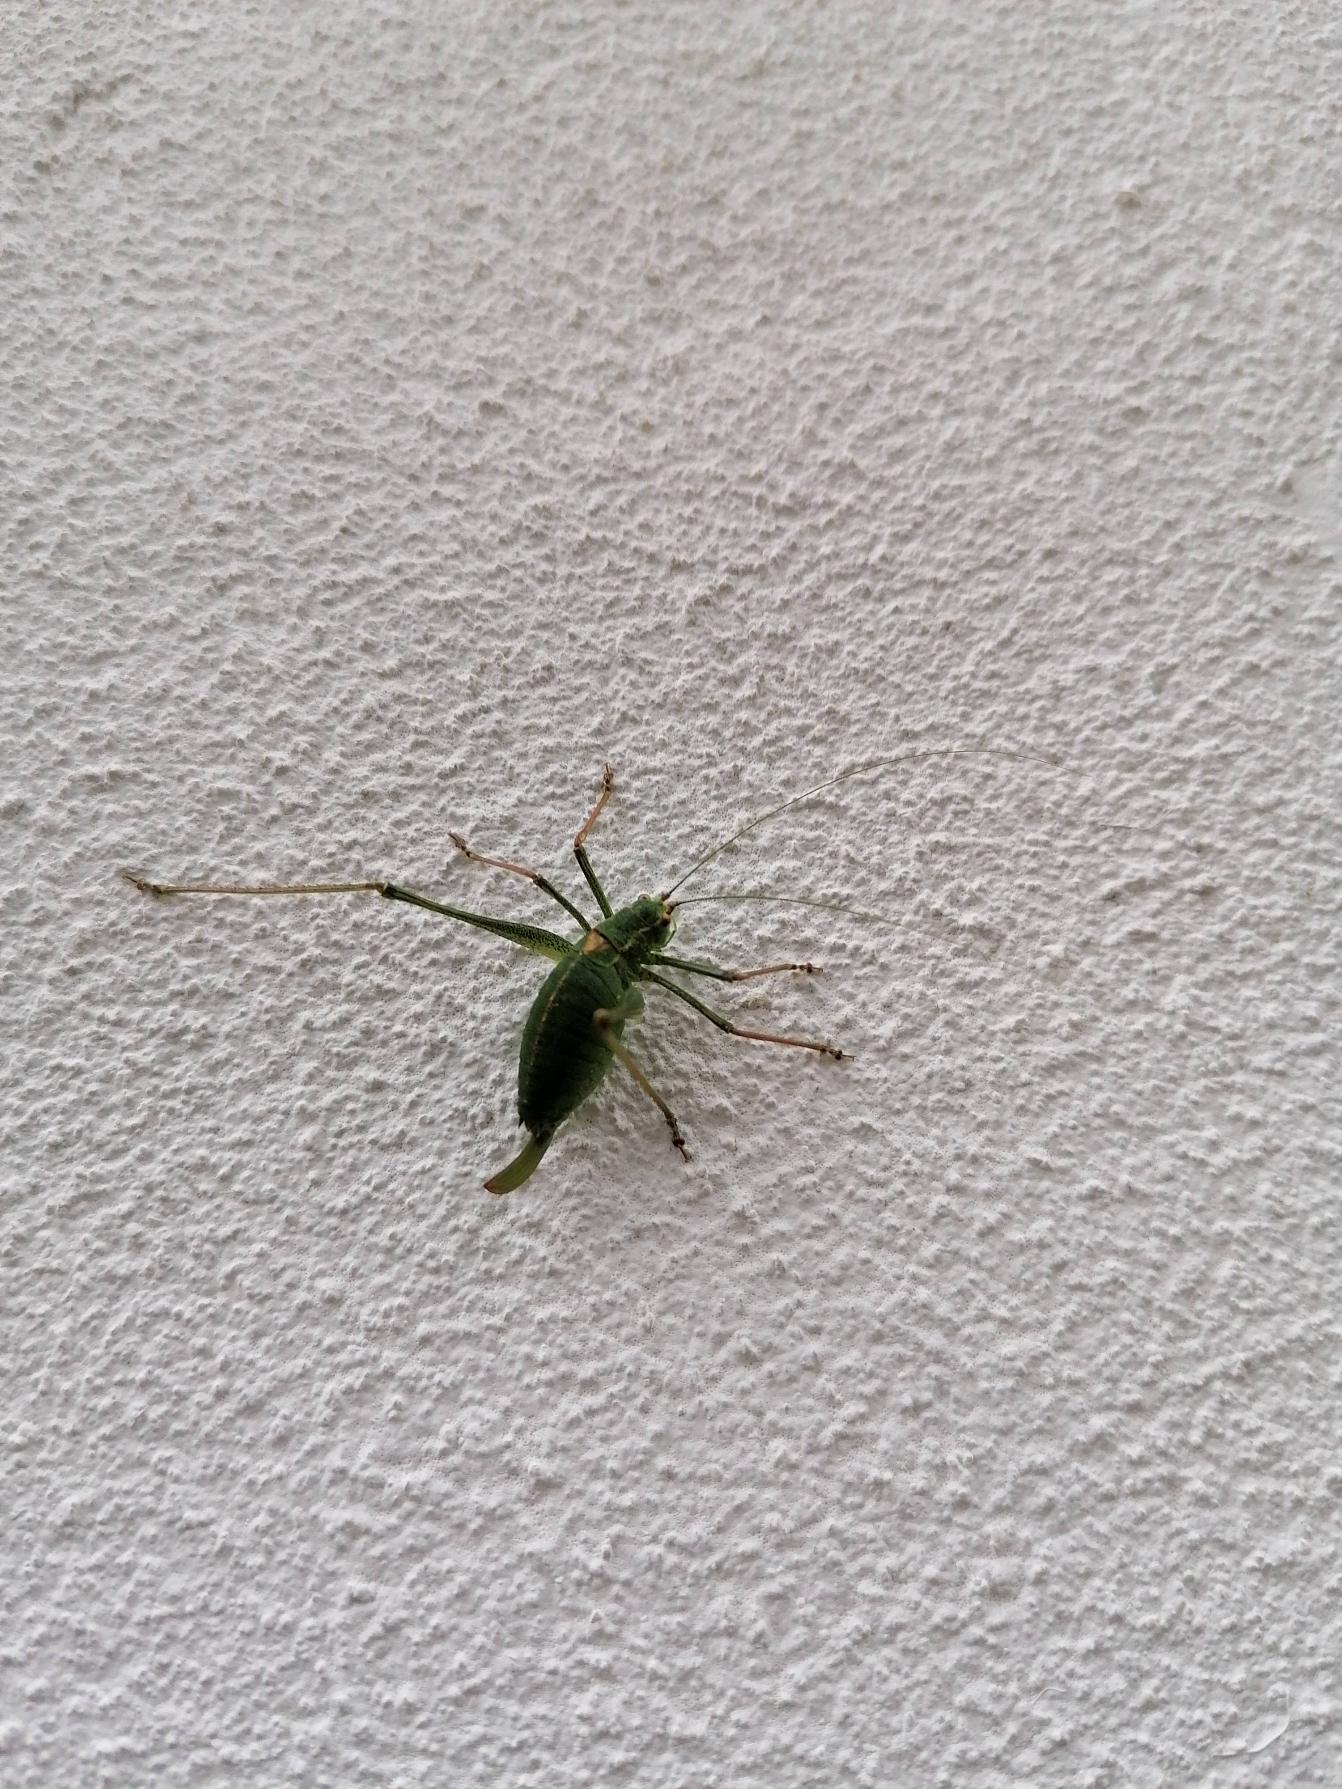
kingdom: Animalia
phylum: Arthropoda
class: Insecta
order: Orthoptera
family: Tettigoniidae
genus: Leptophyes
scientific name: Leptophyes punctatissima
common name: Krumknivgræshoppe
